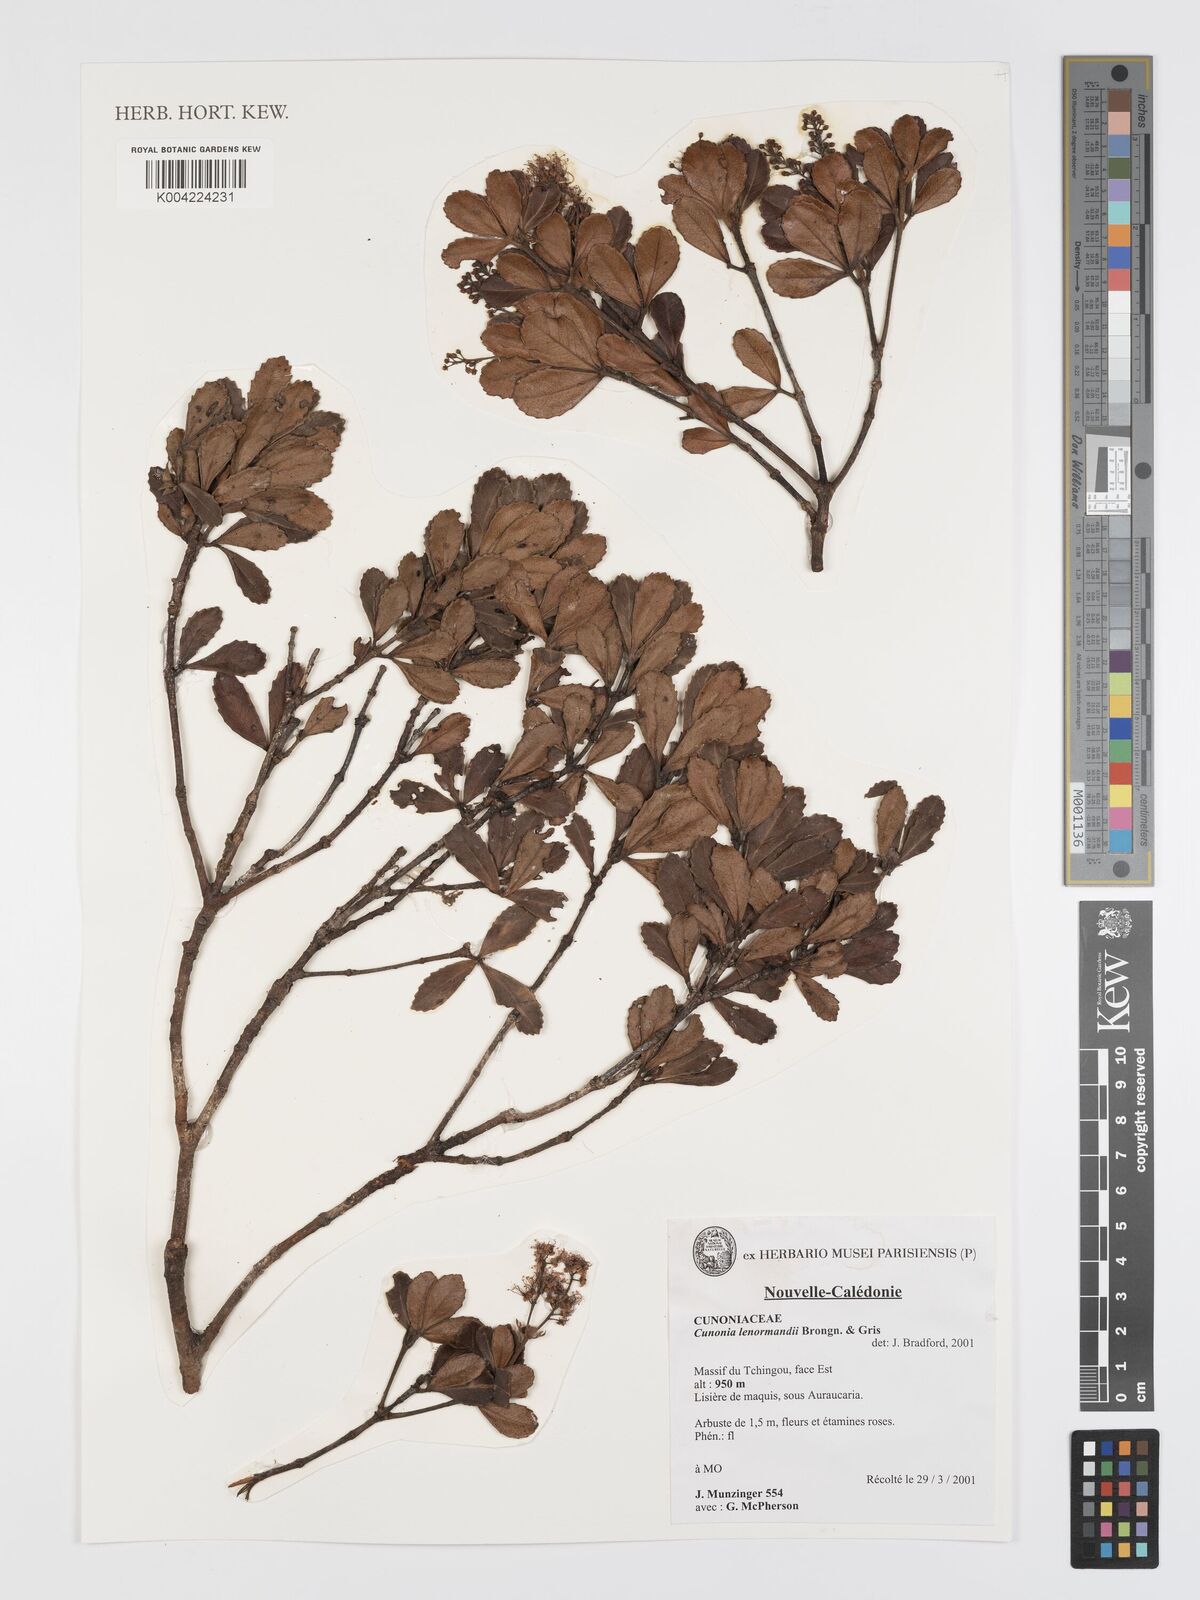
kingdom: Plantae
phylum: Tracheophyta
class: Magnoliopsida
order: Oxalidales
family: Cunoniaceae
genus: Cunonia
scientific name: Cunonia lenormandii
